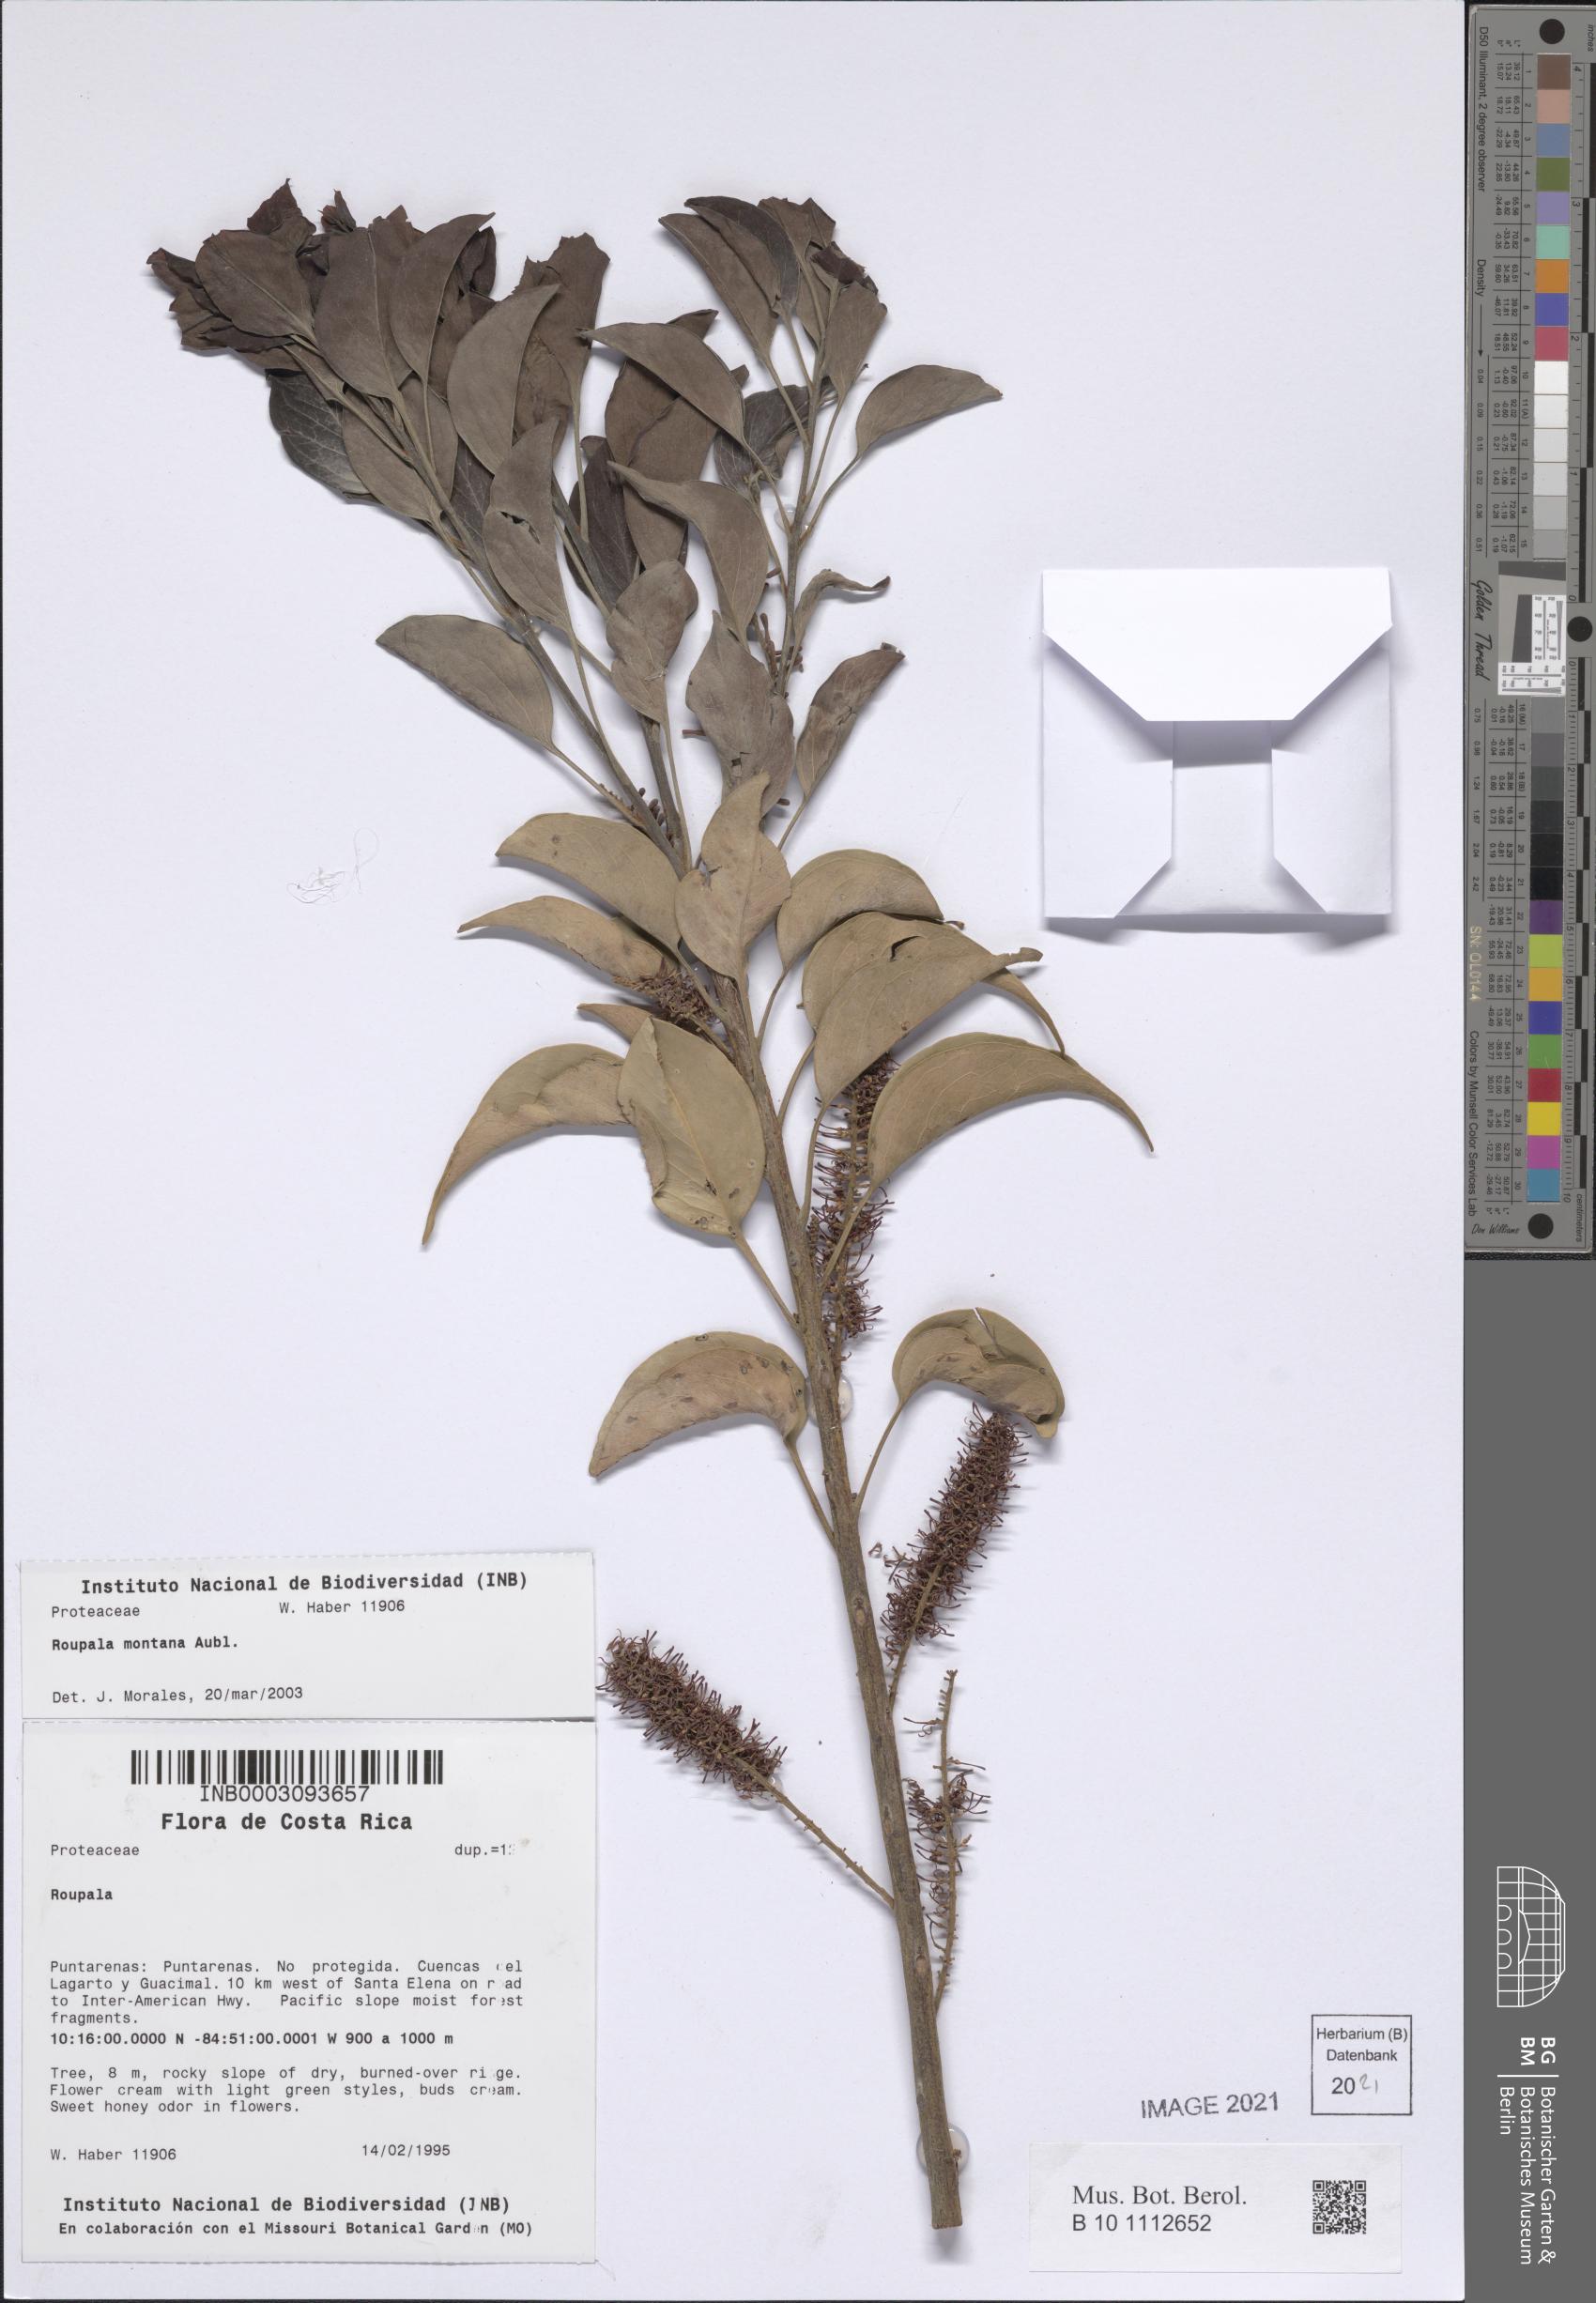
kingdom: Plantae
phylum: Tracheophyta
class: Magnoliopsida
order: Proteales
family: Proteaceae
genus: Roupala
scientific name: Roupala montana
